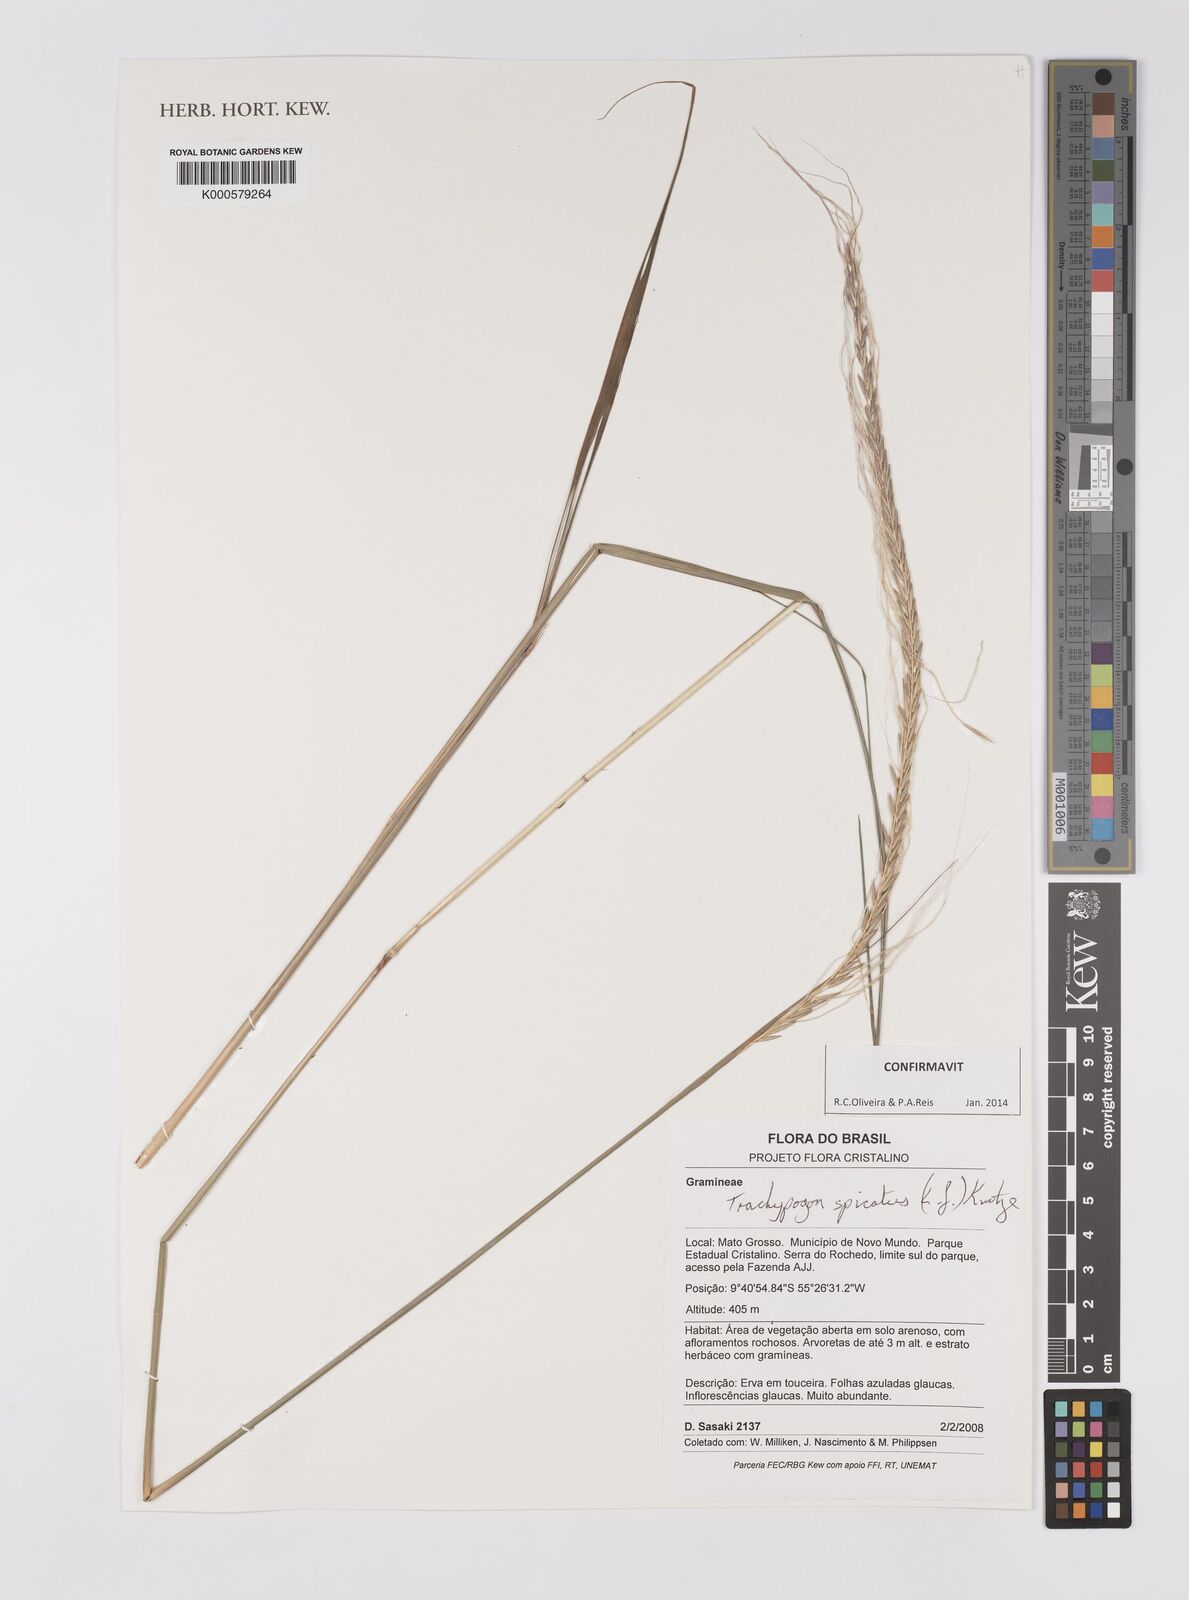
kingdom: Plantae
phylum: Tracheophyta
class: Liliopsida
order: Poales
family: Poaceae
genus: Trachypogon
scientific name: Trachypogon spicatus
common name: Crinkle-awn
